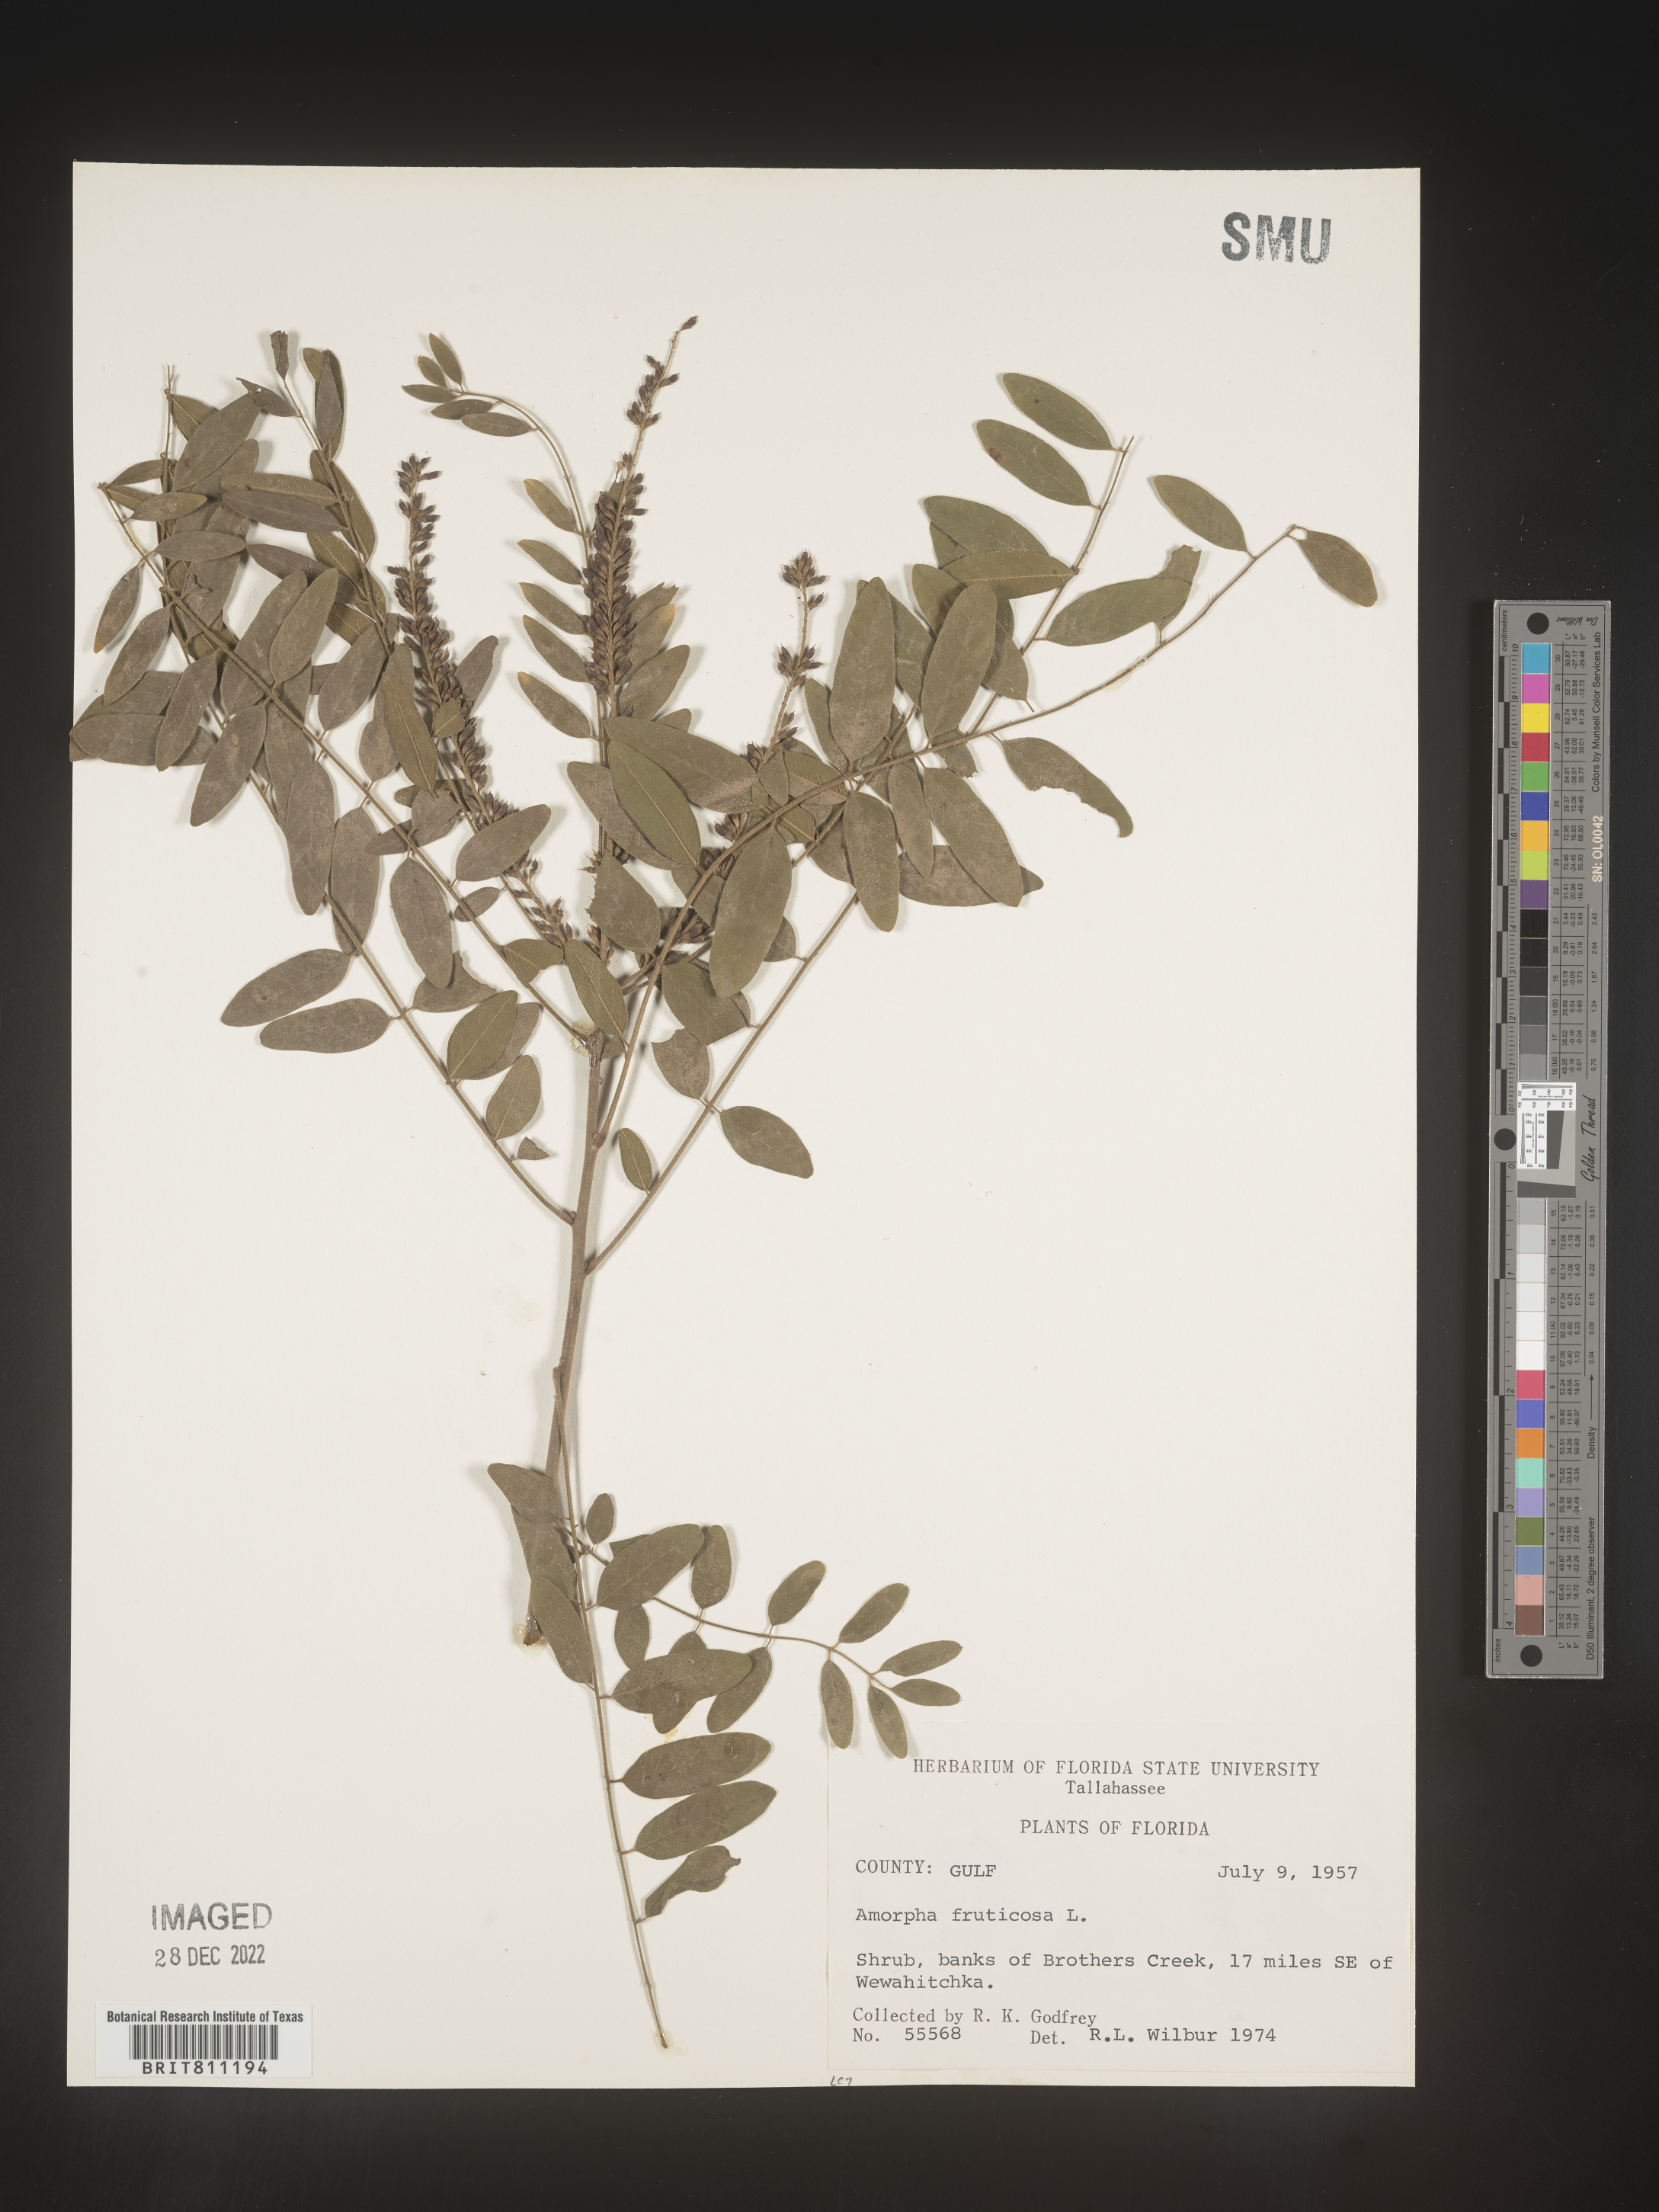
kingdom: Plantae
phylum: Tracheophyta
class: Magnoliopsida
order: Fabales
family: Fabaceae
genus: Amorpha
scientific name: Amorpha fruticosa
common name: False indigo
